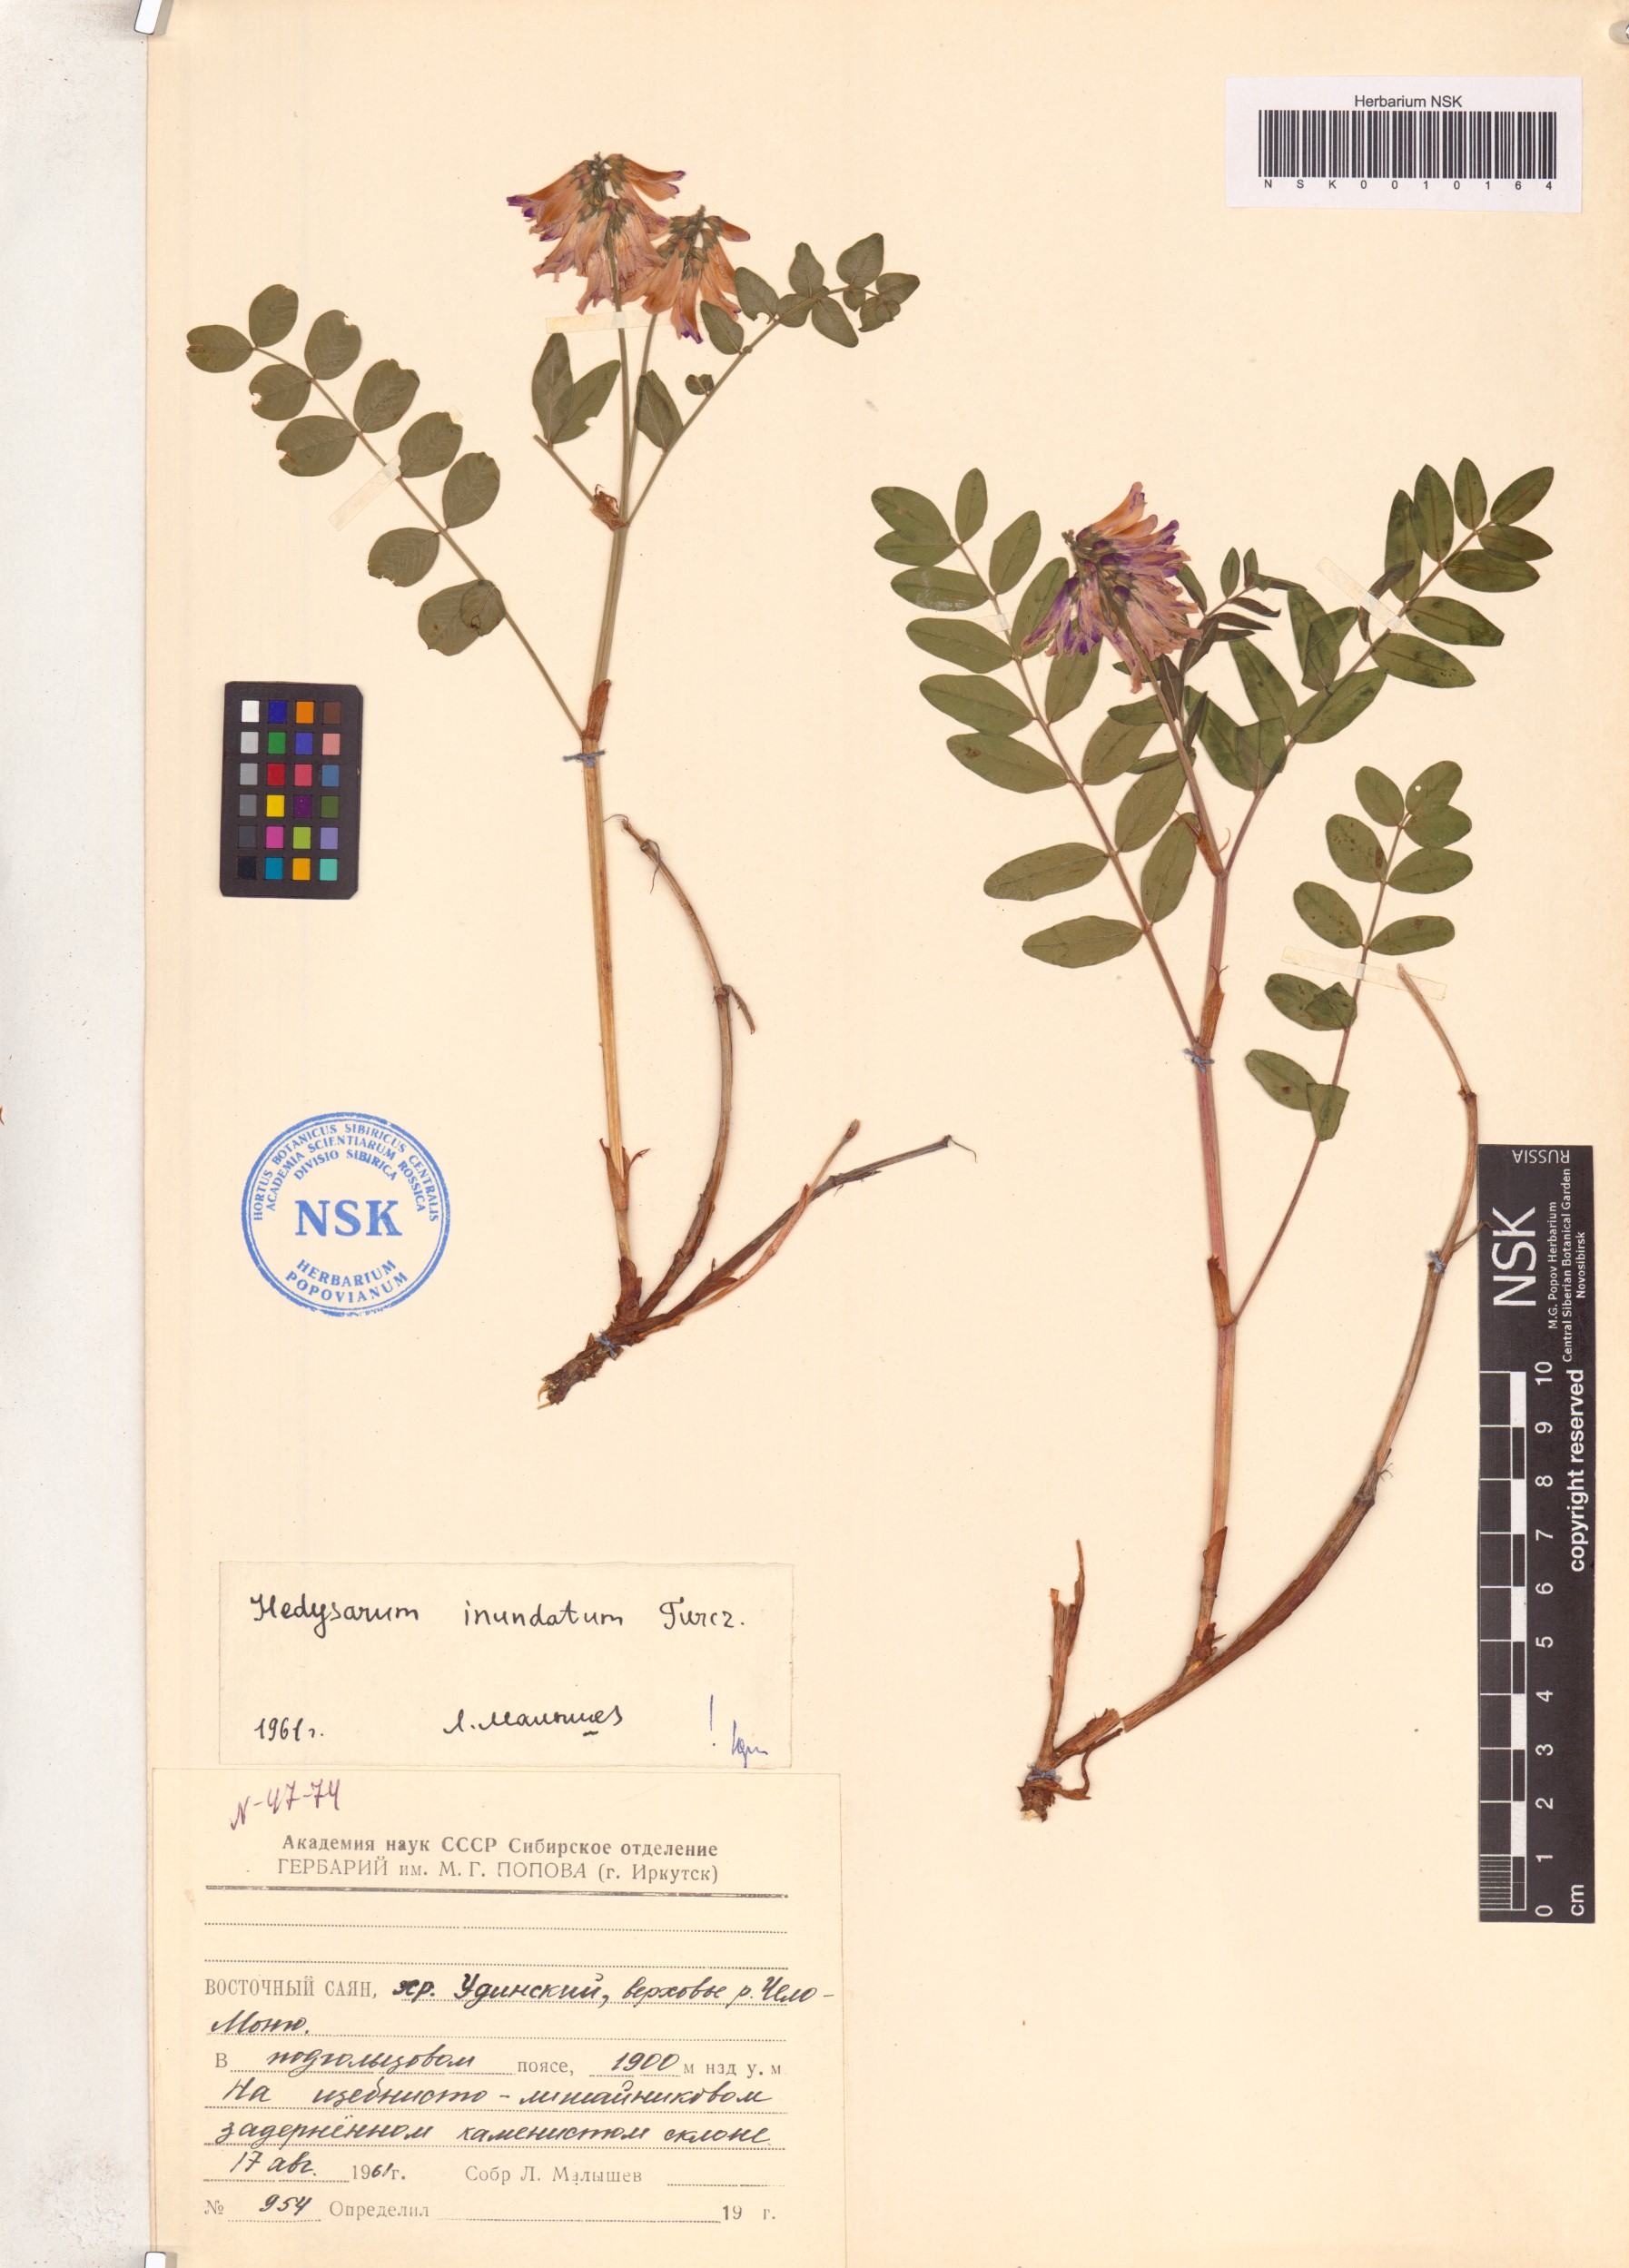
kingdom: Plantae
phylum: Tracheophyta
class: Magnoliopsida
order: Fabales
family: Fabaceae
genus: Hedysarum
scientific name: Hedysarum inundatum
